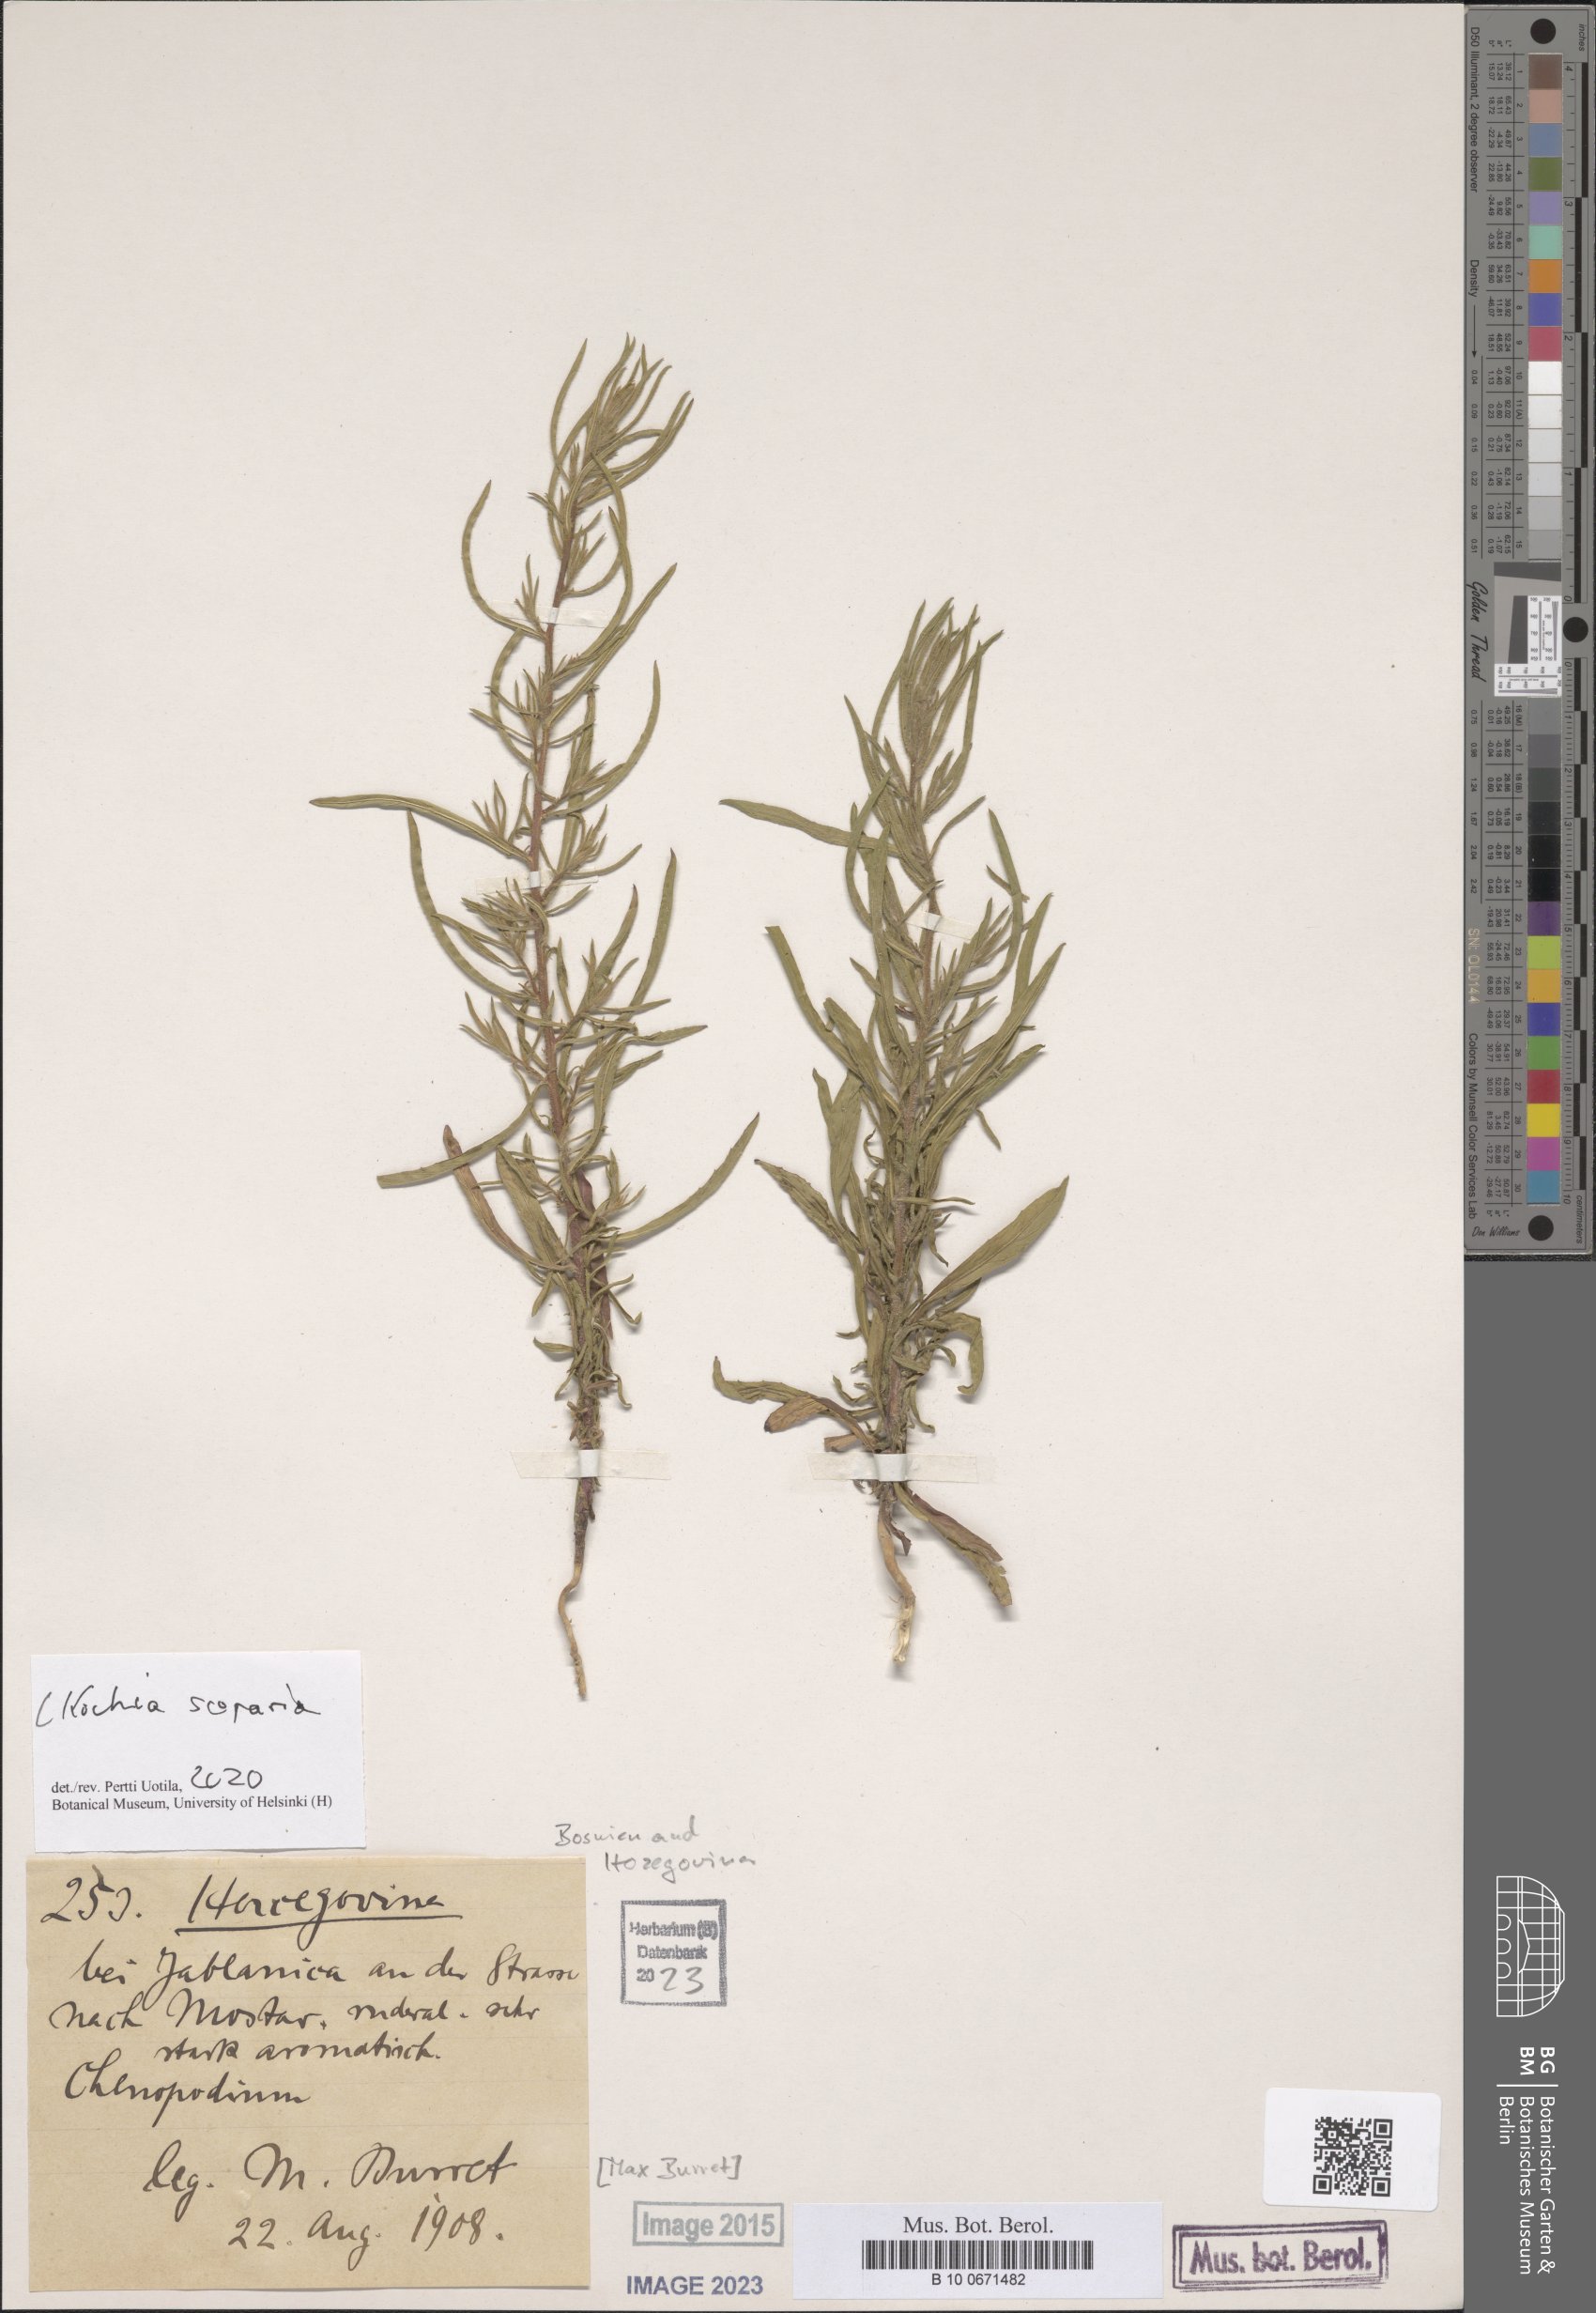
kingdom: Plantae
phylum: Tracheophyta
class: Magnoliopsida
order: Caryophyllales
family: Amaranthaceae
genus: Bassia
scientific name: Bassia scoparia
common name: Belvedere
